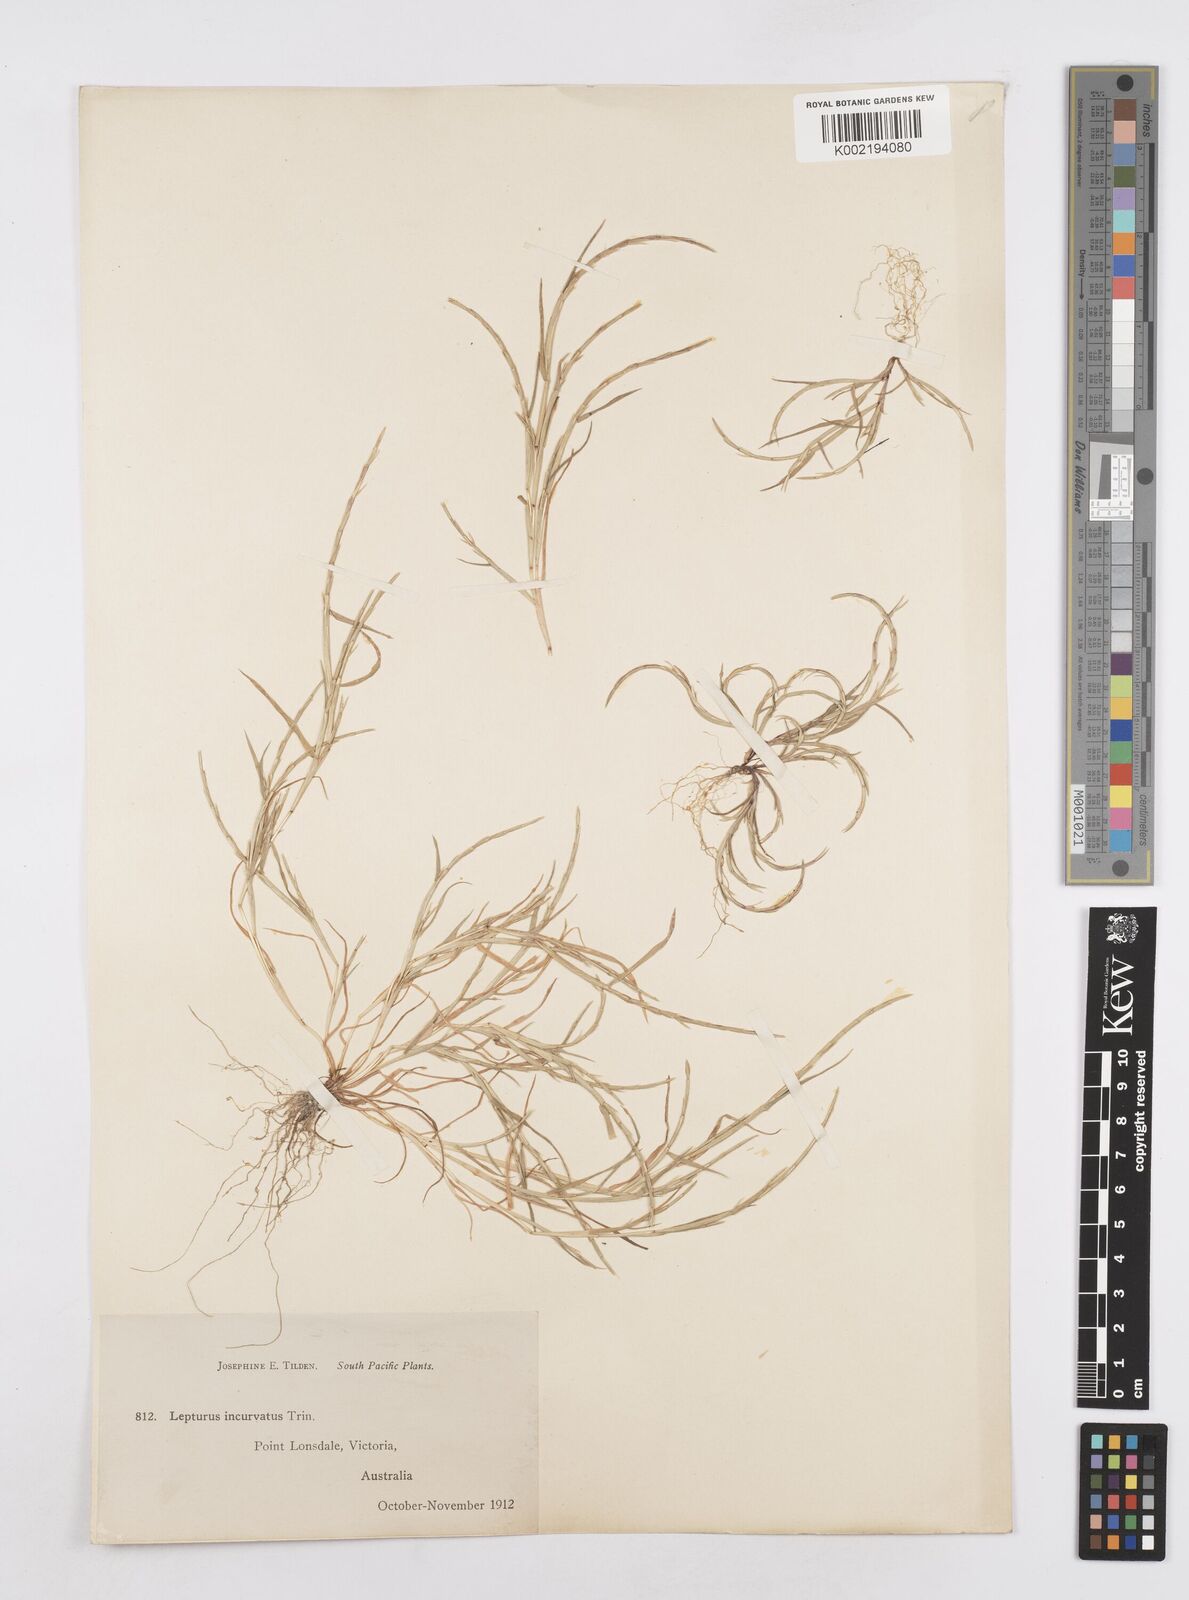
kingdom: Plantae
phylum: Tracheophyta
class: Liliopsida
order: Poales
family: Poaceae
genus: Parapholis
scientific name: Parapholis incurva
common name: Curved sicklegrass
